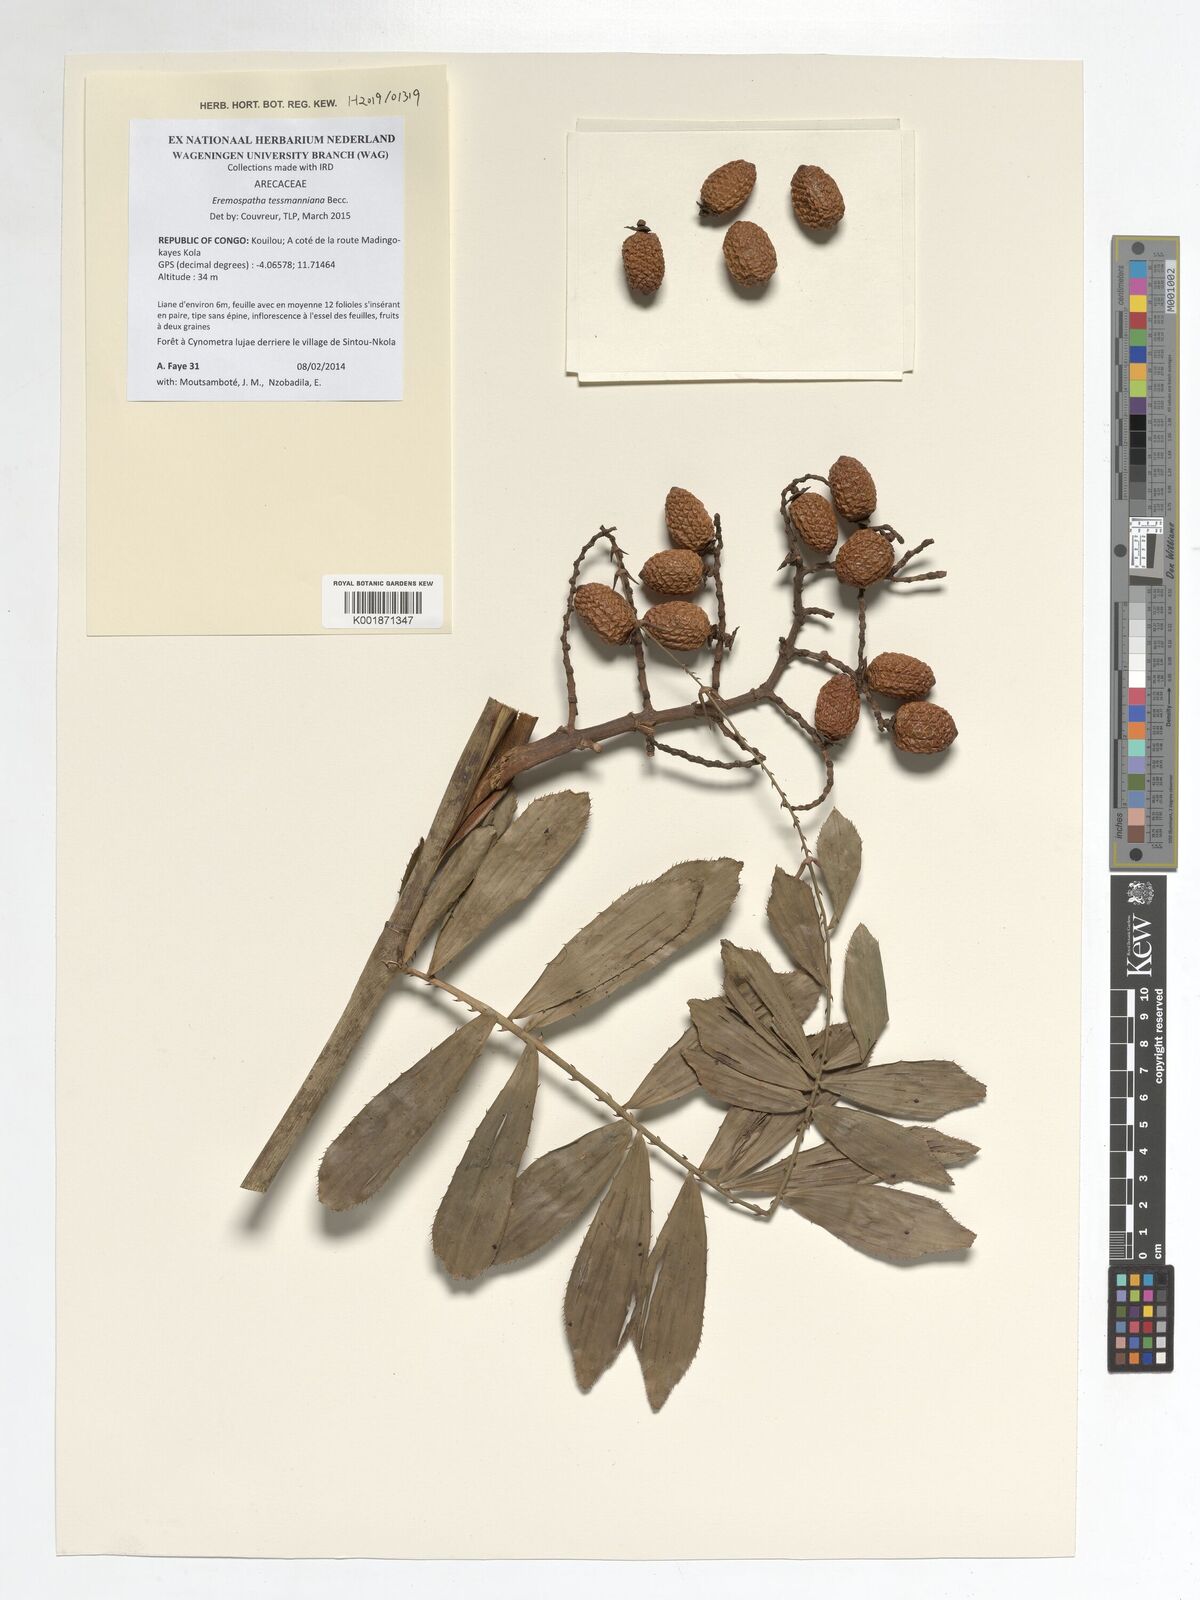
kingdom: Plantae
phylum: Tracheophyta
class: Liliopsida
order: Arecales
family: Arecaceae
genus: Eremospatha
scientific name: Eremospatha tessmanniana
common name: Rattan
